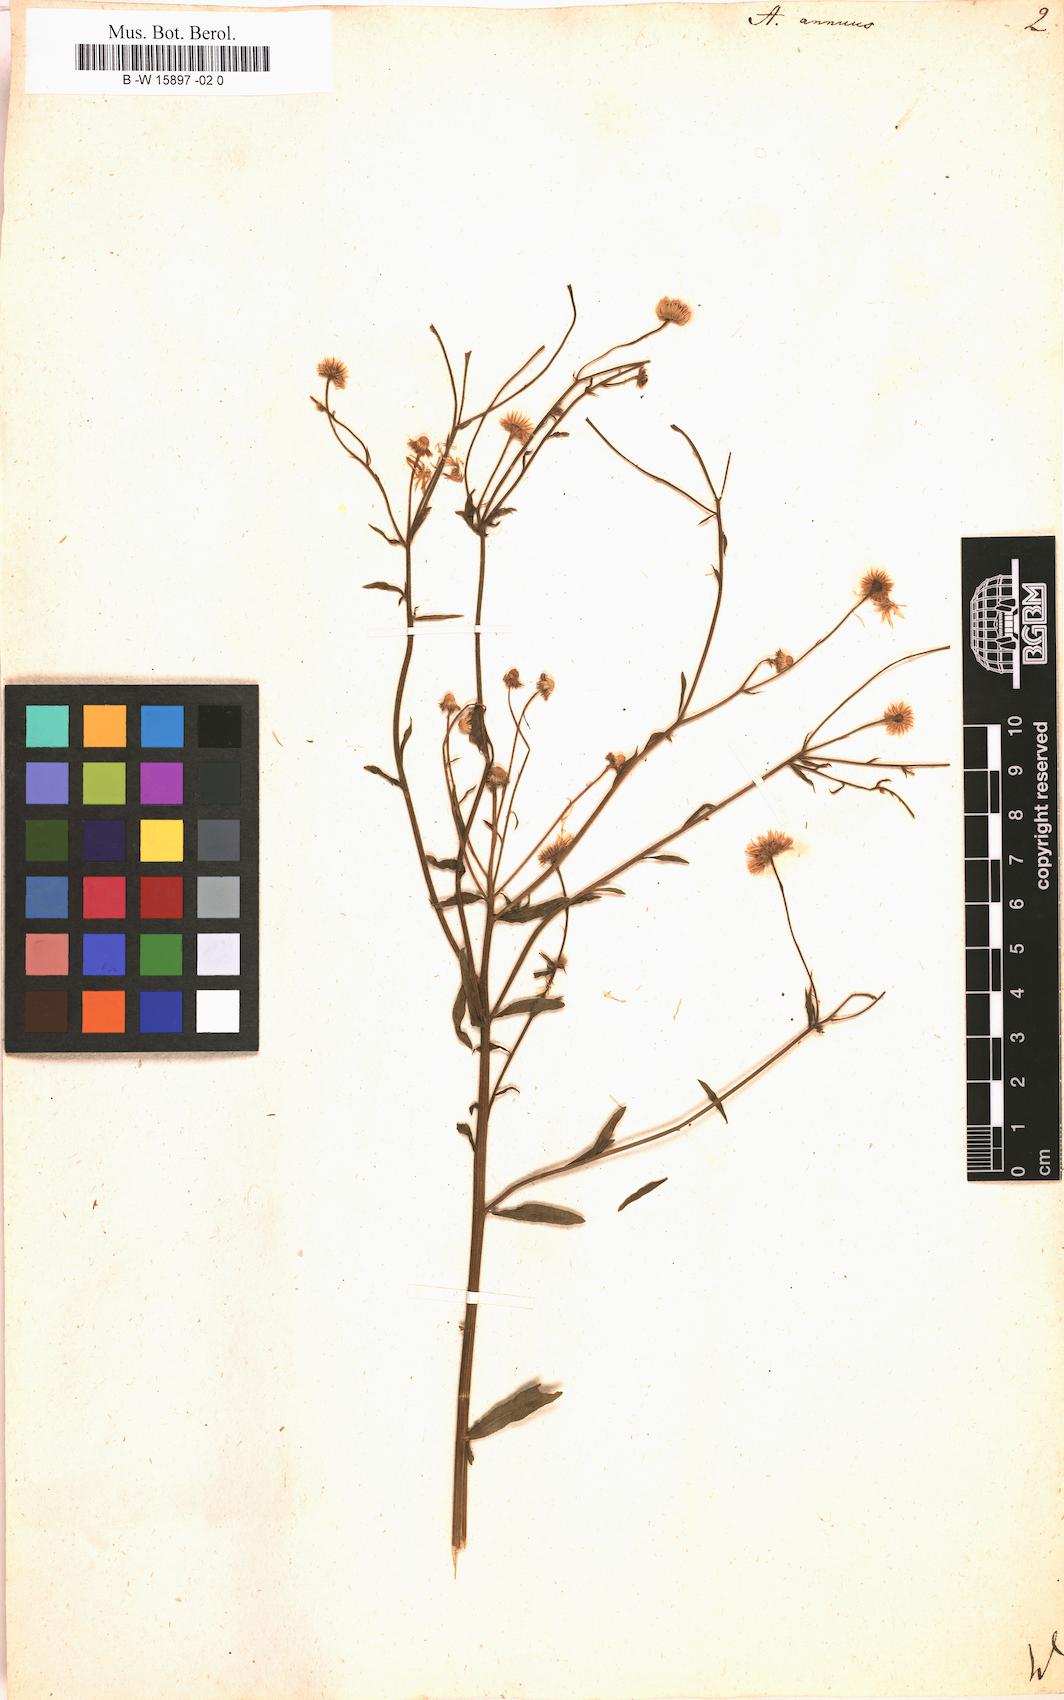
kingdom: Plantae
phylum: Tracheophyta
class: Magnoliopsida
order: Asterales
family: Asteraceae
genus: Erigeron
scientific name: Erigeron annuus
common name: Tall fleabane
